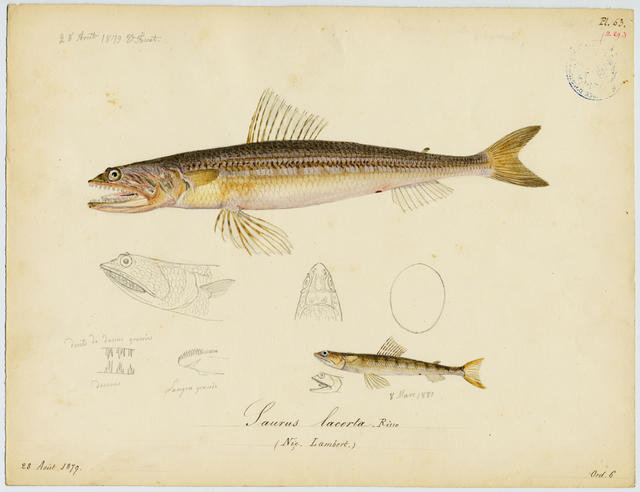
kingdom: Animalia
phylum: Chordata
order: Aulopiformes
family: Synodontidae
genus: Synodus
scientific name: Synodus saurus
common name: Atlantic lizardfish
